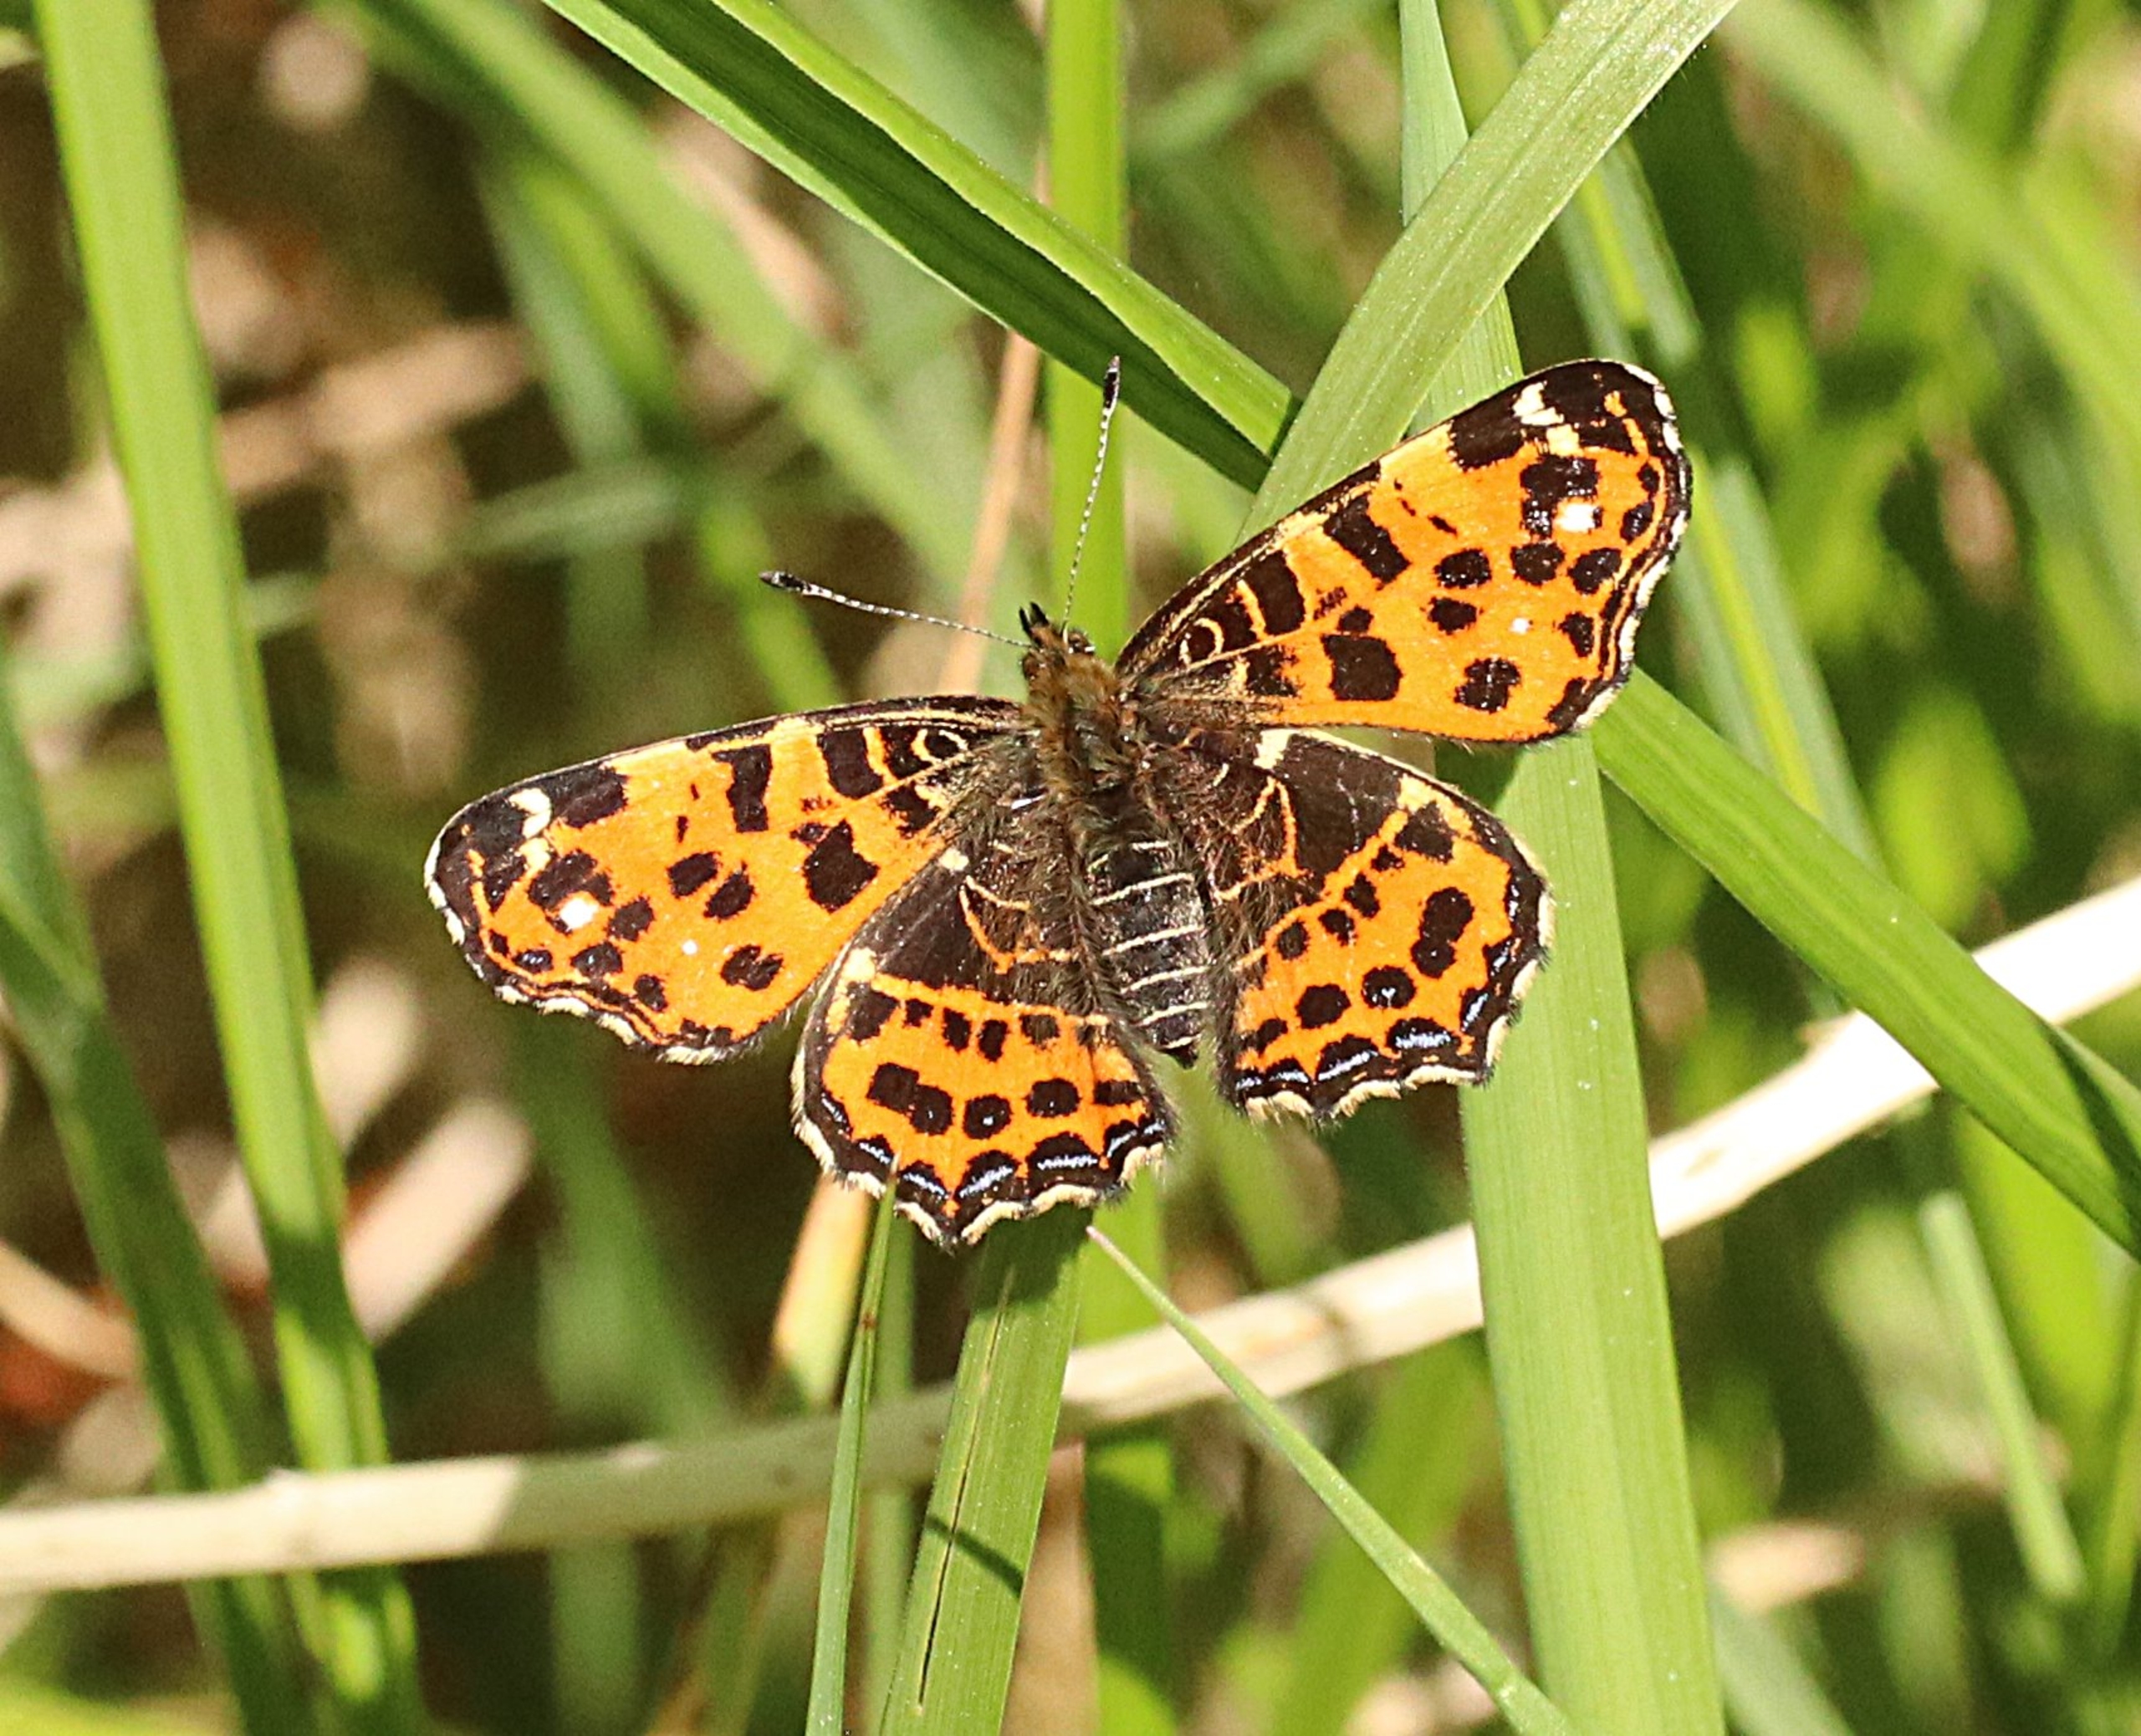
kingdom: Animalia
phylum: Arthropoda
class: Insecta
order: Lepidoptera
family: Nymphalidae
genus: Araschnia
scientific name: Araschnia levana
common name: Nældesommerfugl
